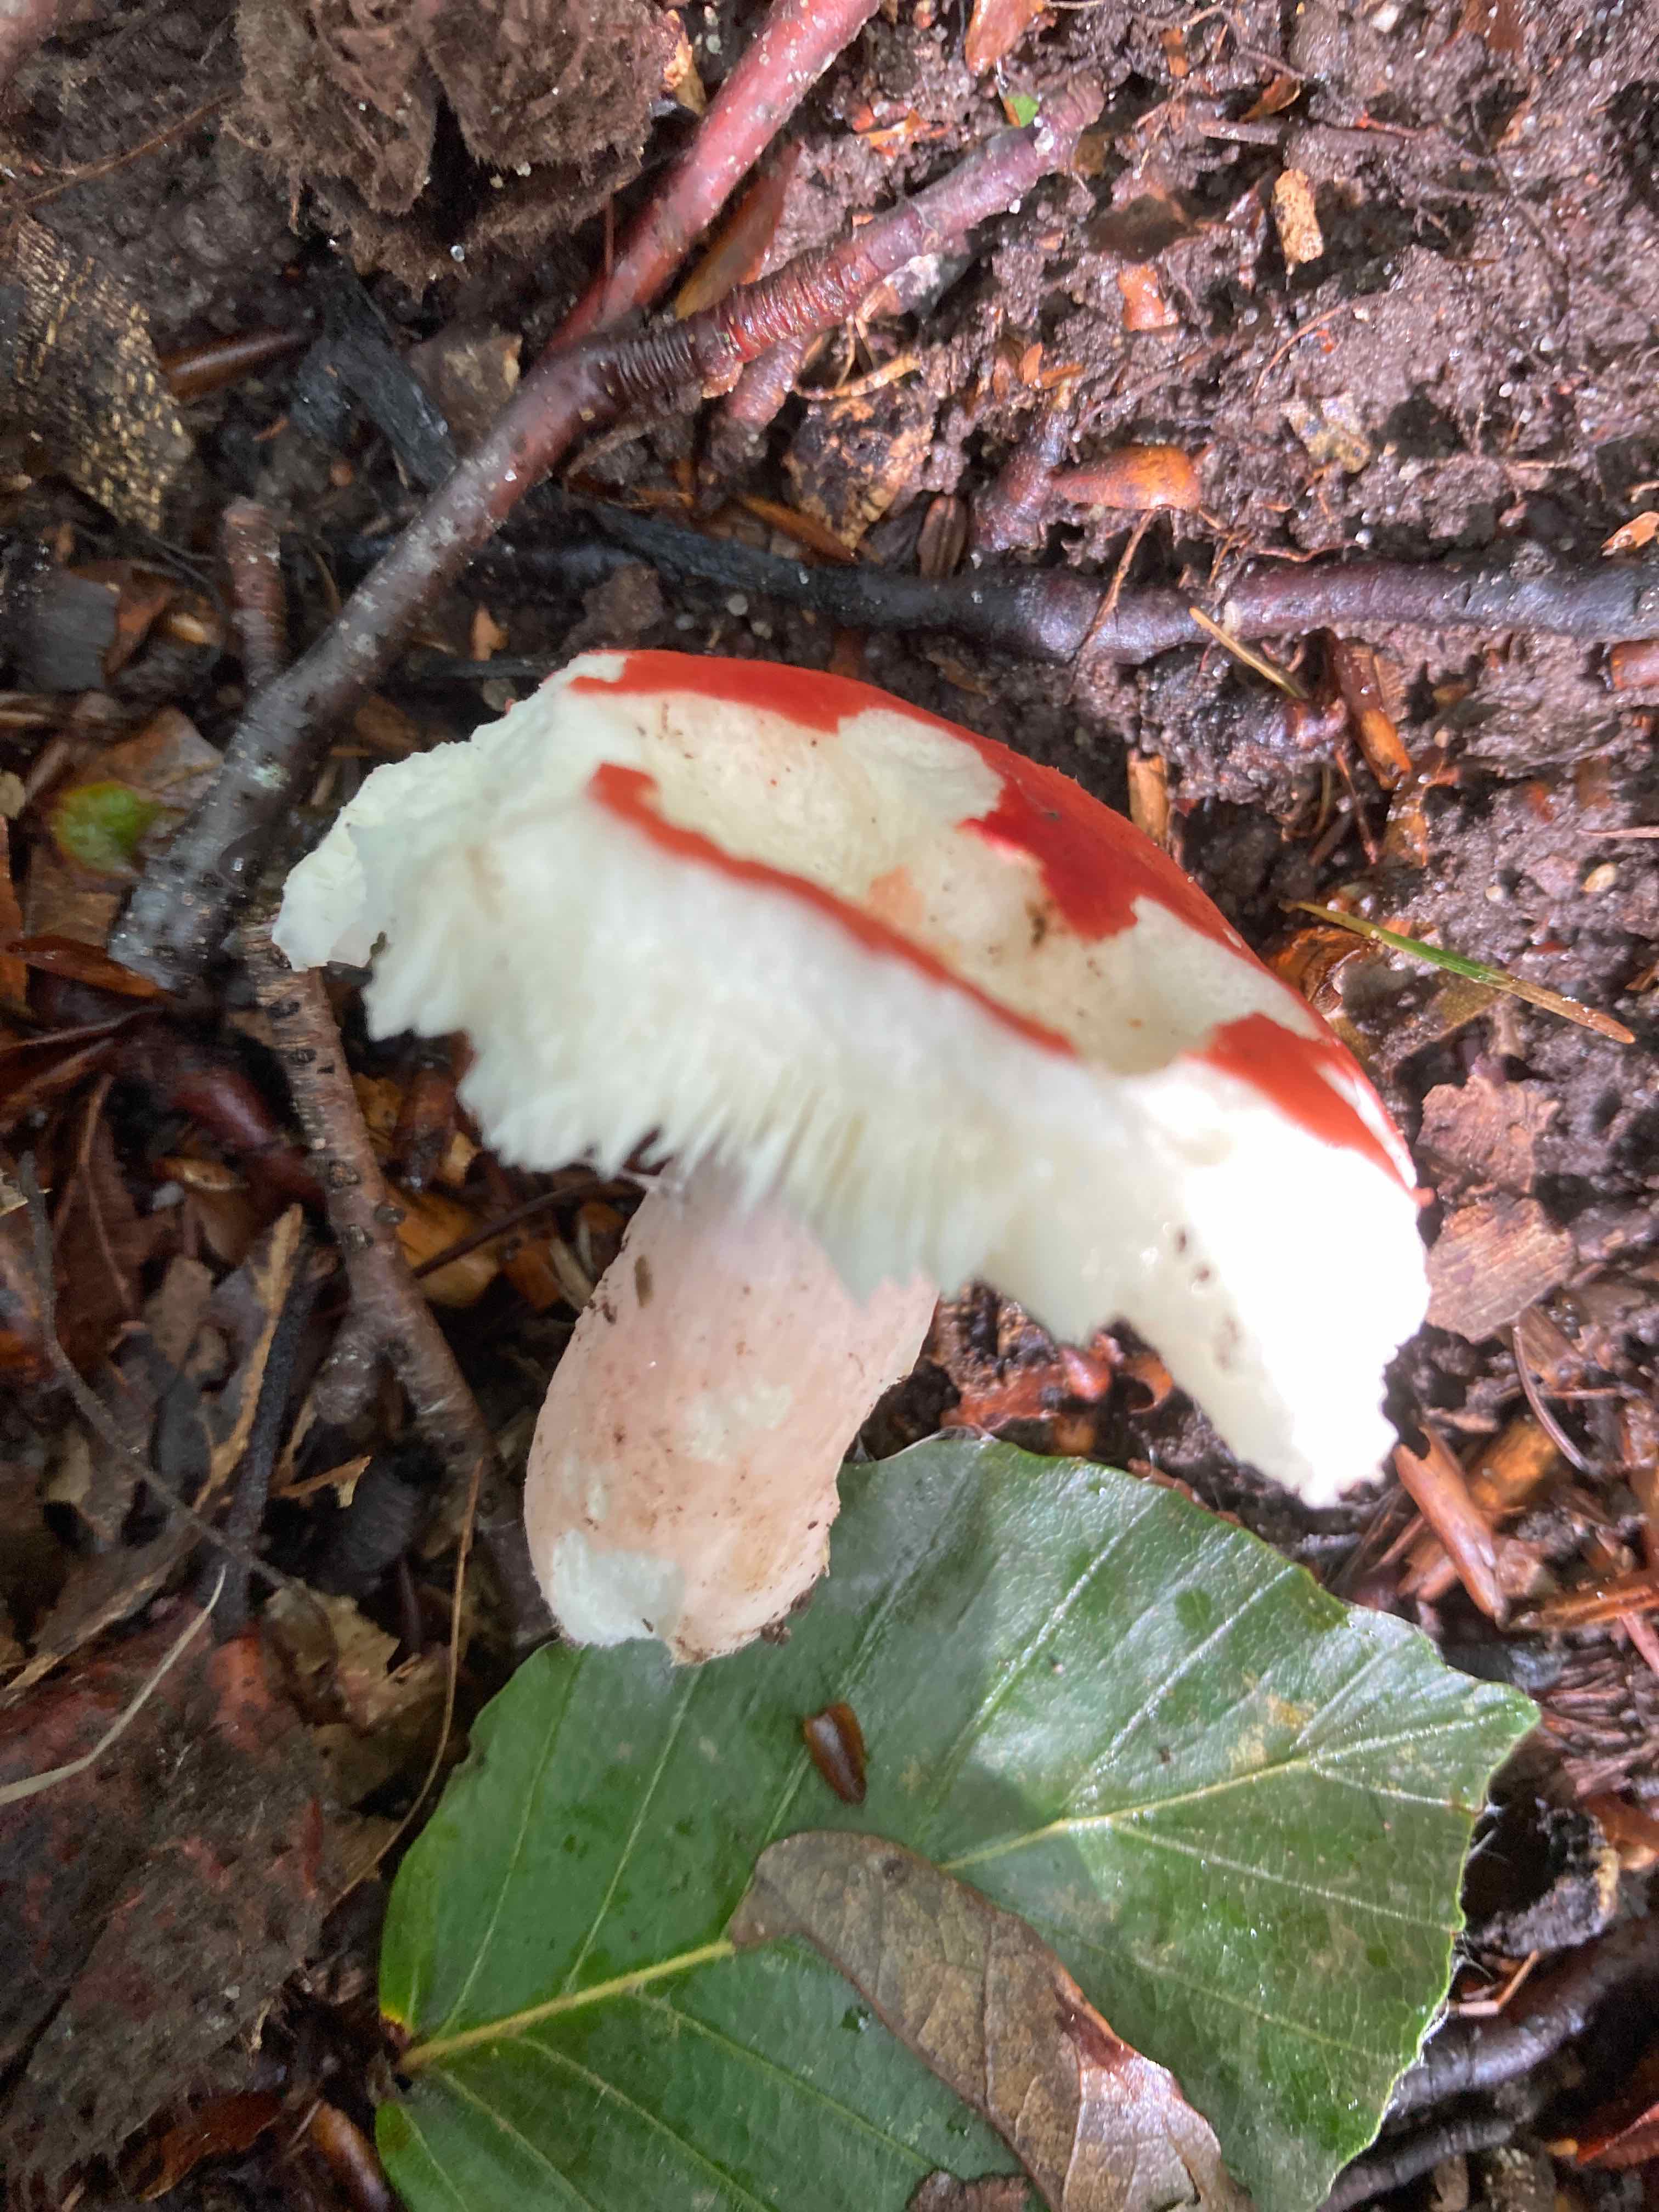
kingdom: Fungi
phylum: Basidiomycota
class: Agaricomycetes
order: Russulales
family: Russulaceae
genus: Russula
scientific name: Russula rosea
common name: fastkødet skørhat
